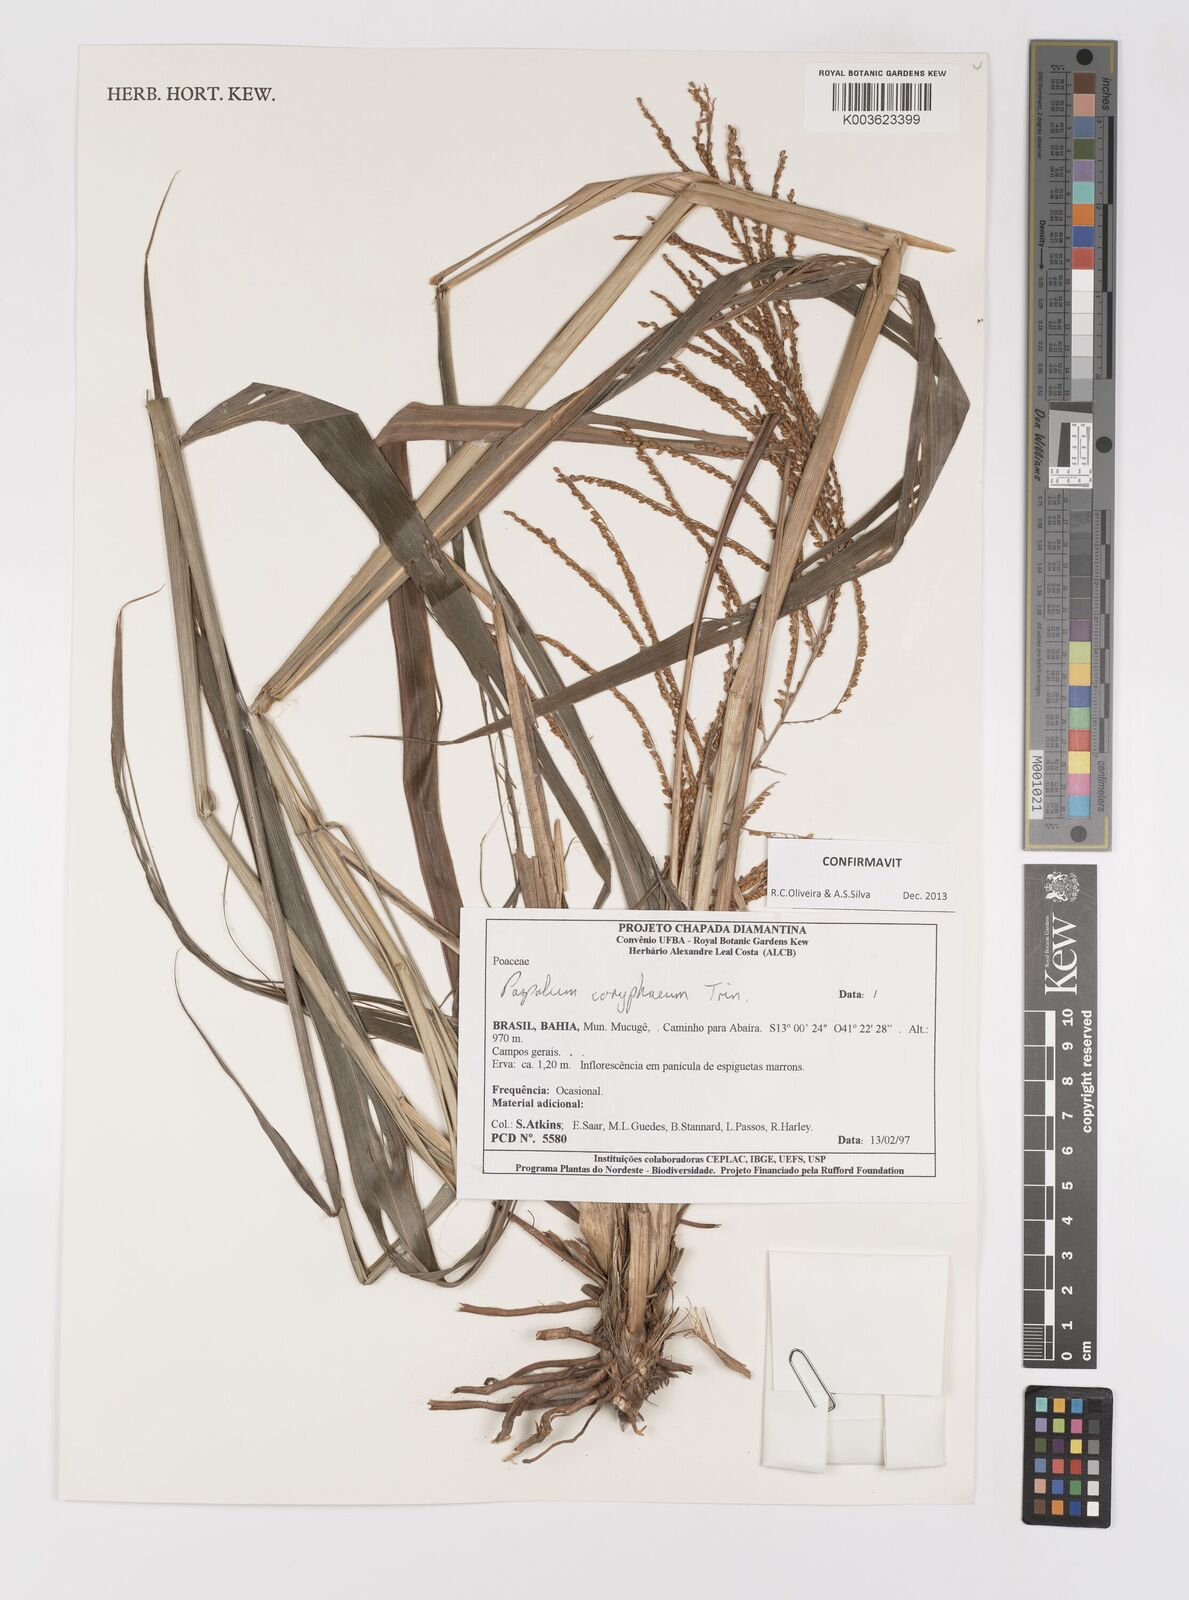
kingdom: Plantae
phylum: Tracheophyta
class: Liliopsida
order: Poales
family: Poaceae
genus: Paspalum
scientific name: Paspalum coryphaeum
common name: Emperor crowngrass
